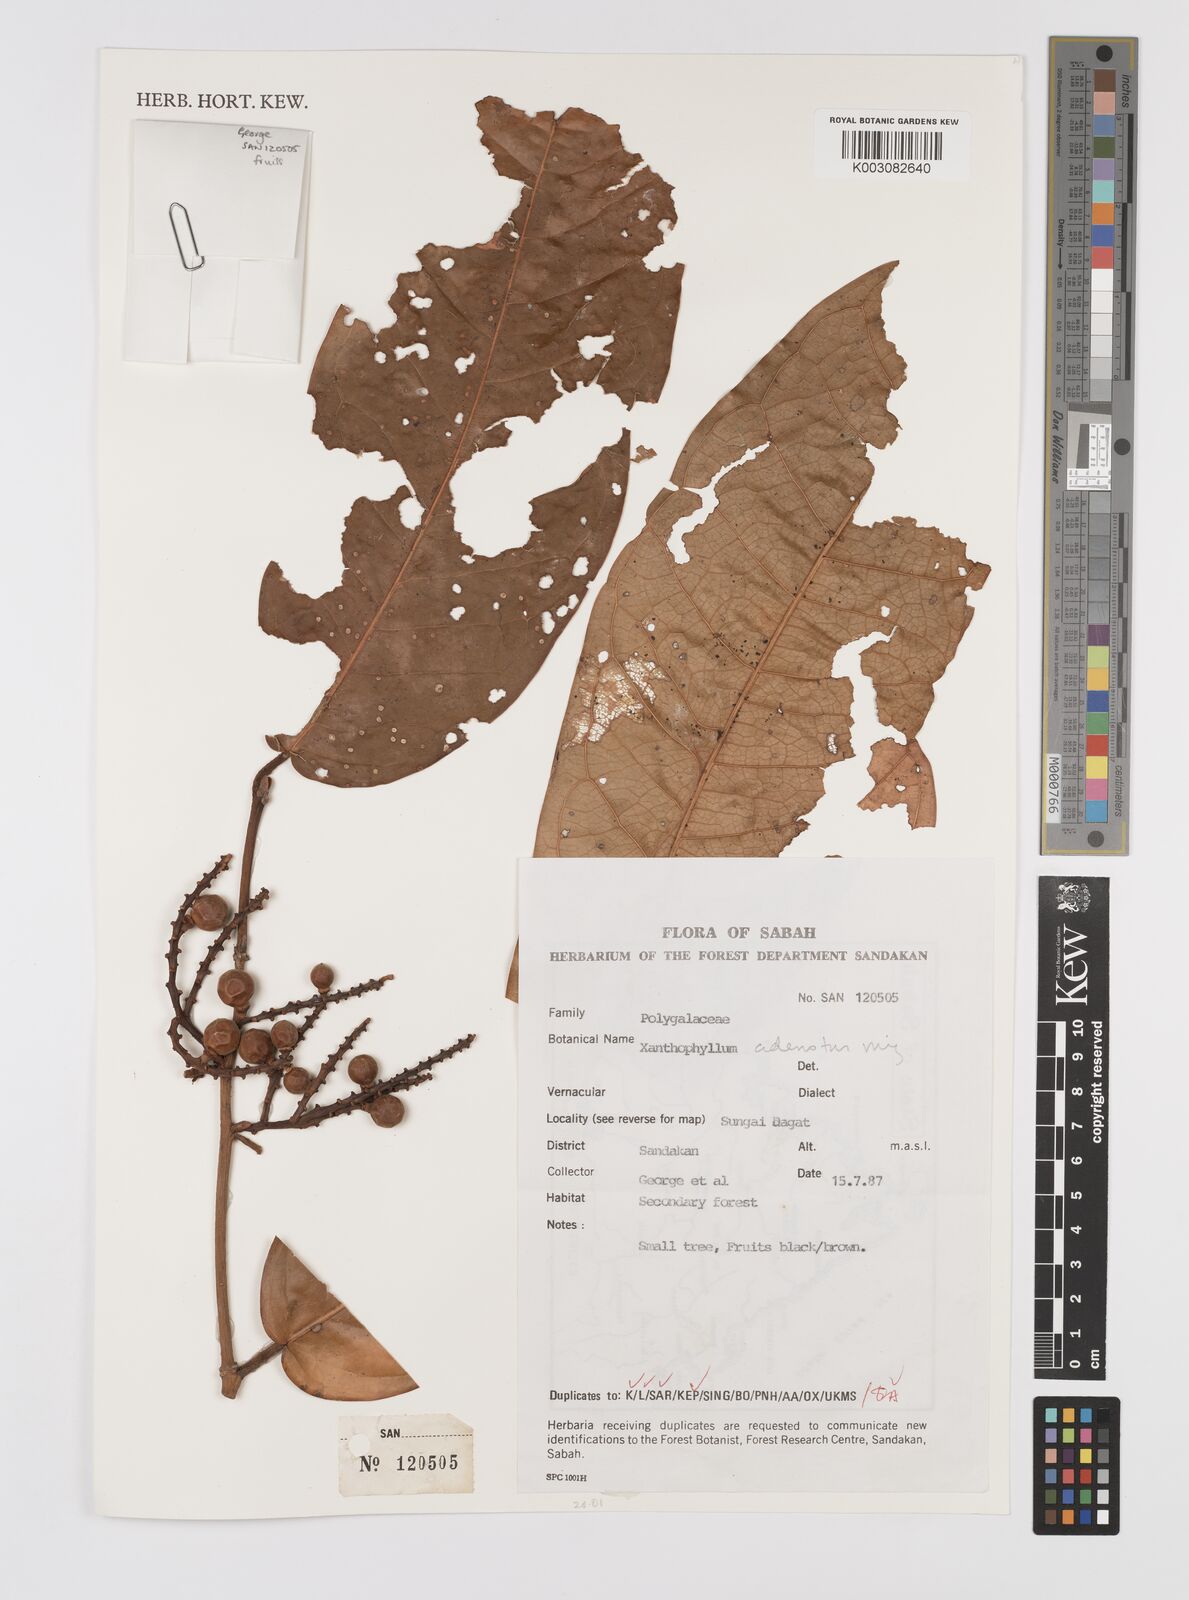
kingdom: Plantae
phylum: Tracheophyta
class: Magnoliopsida
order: Fabales
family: Polygalaceae
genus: Xanthophyllum
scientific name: Xanthophyllum adenotus
